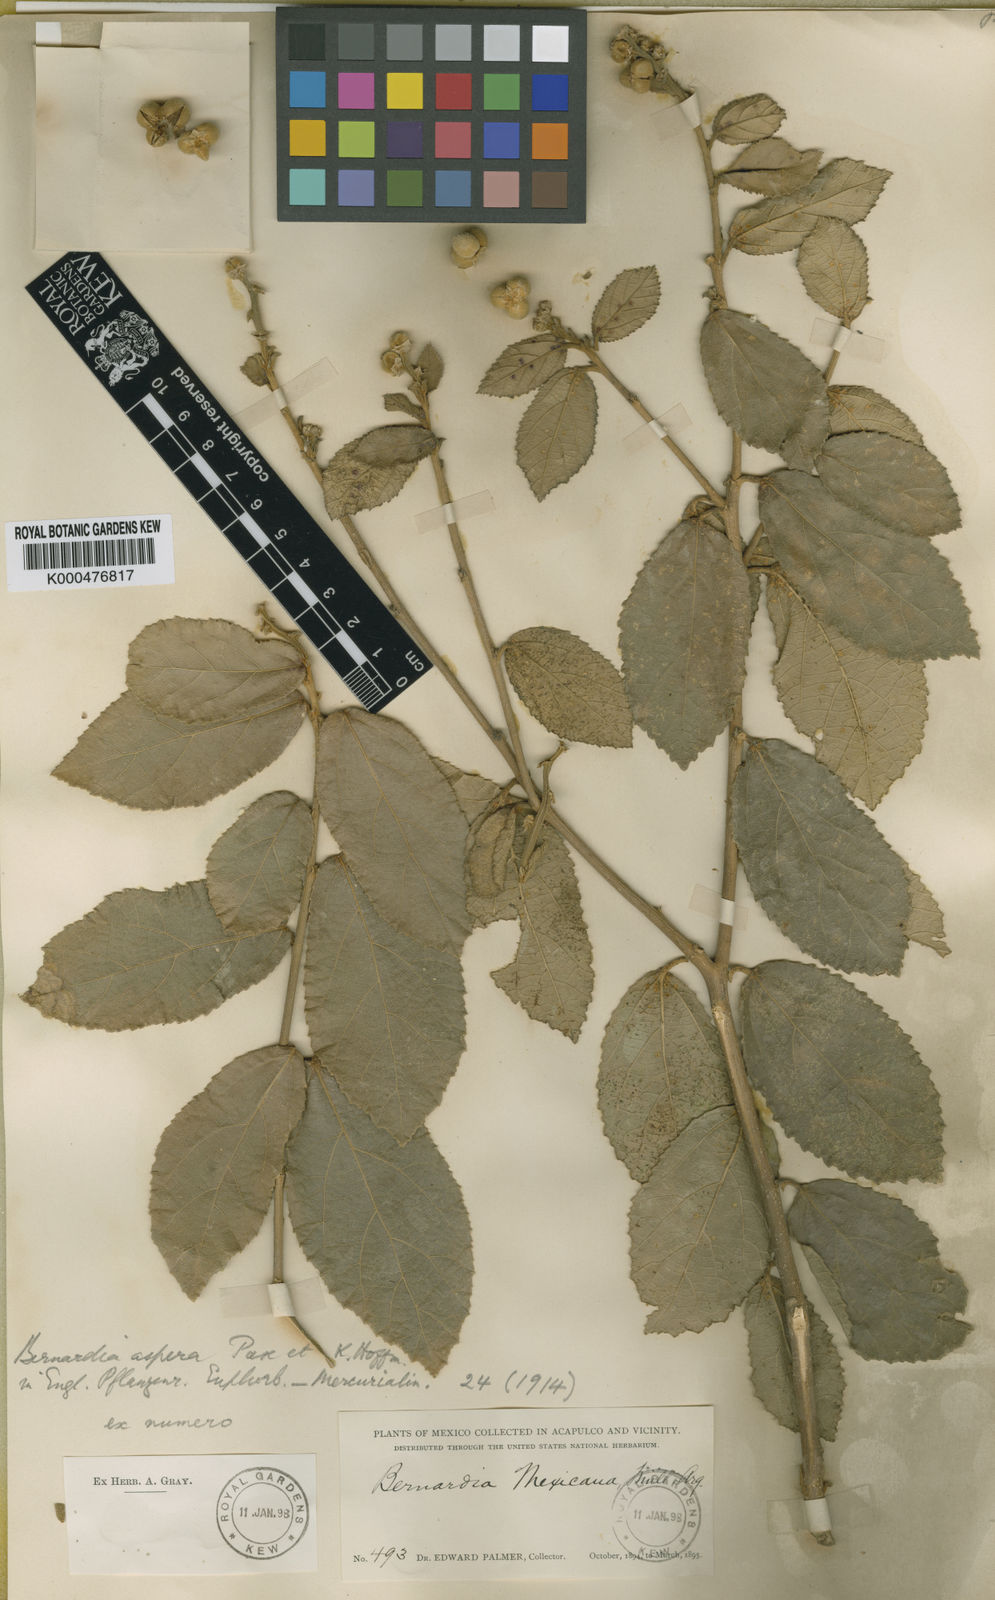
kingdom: Plantae
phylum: Tracheophyta
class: Magnoliopsida
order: Malpighiales
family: Euphorbiaceae
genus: Bernardia
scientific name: Bernardia
